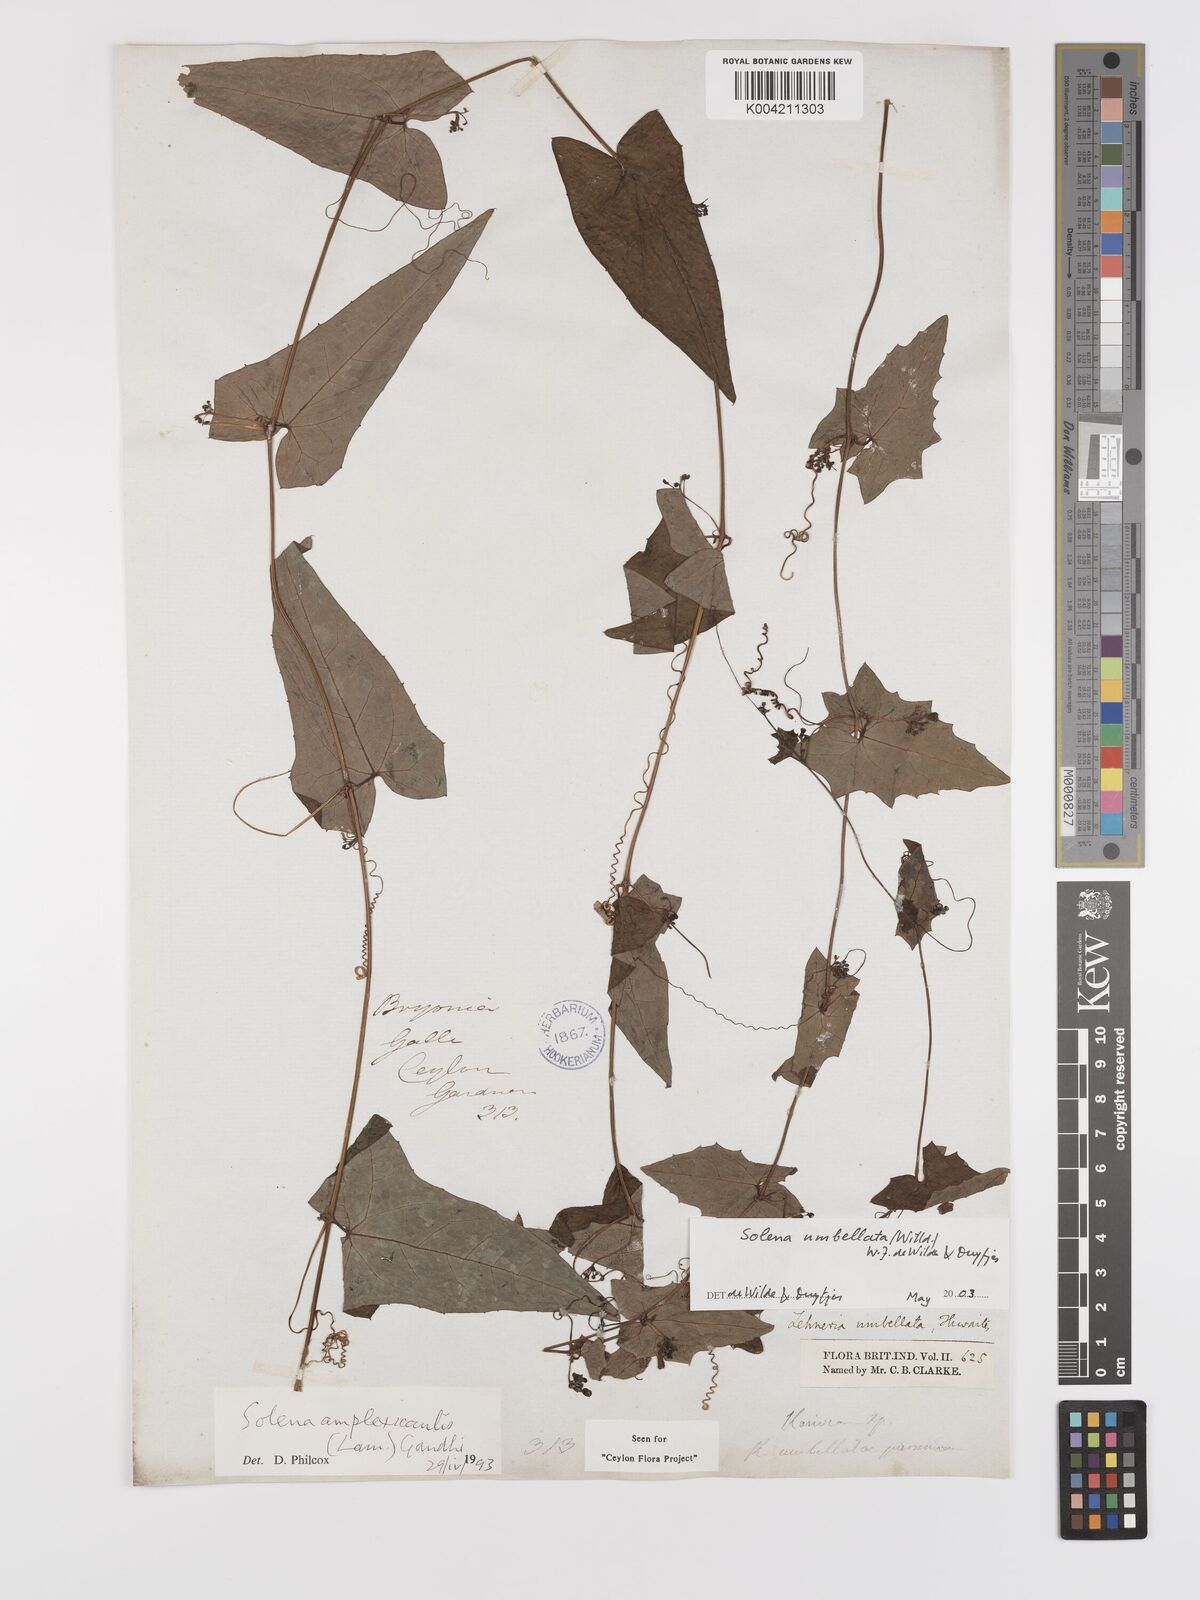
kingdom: Plantae
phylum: Tracheophyta
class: Magnoliopsida
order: Cucurbitales
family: Cucurbitaceae
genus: Solena
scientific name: Solena umbellata
